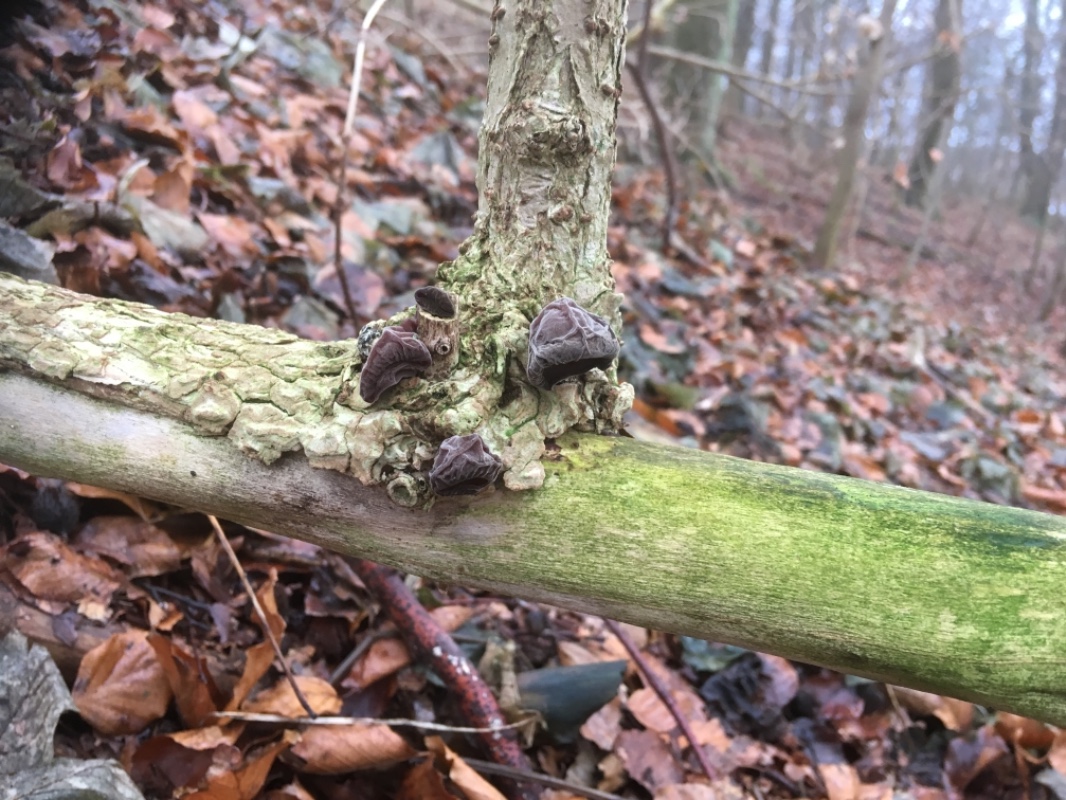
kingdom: Fungi
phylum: Basidiomycota
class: Agaricomycetes
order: Auriculariales
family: Auriculariaceae
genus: Auricularia
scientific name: Auricularia auricula-judae
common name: almindelig judasøre
